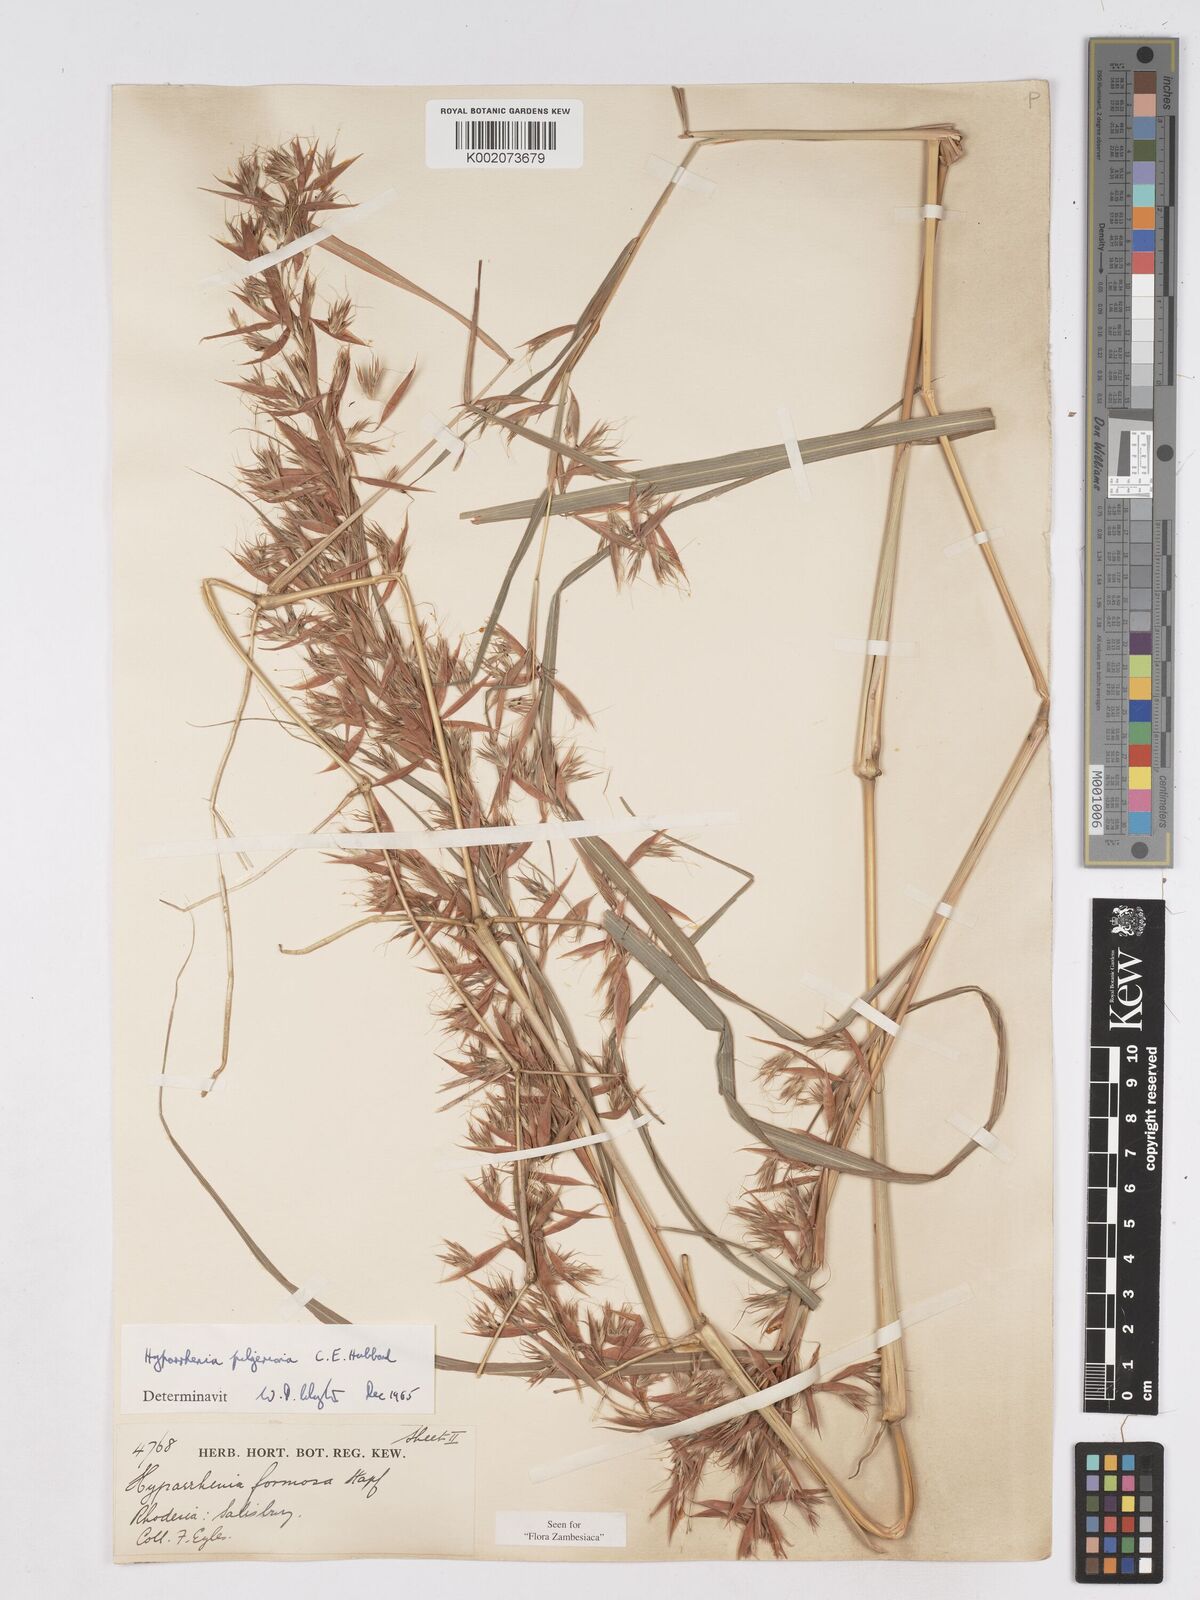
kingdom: Plantae
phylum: Tracheophyta
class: Liliopsida
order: Poales
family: Poaceae
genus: Hyparrhenia
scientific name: Hyparrhenia pilgeriana
